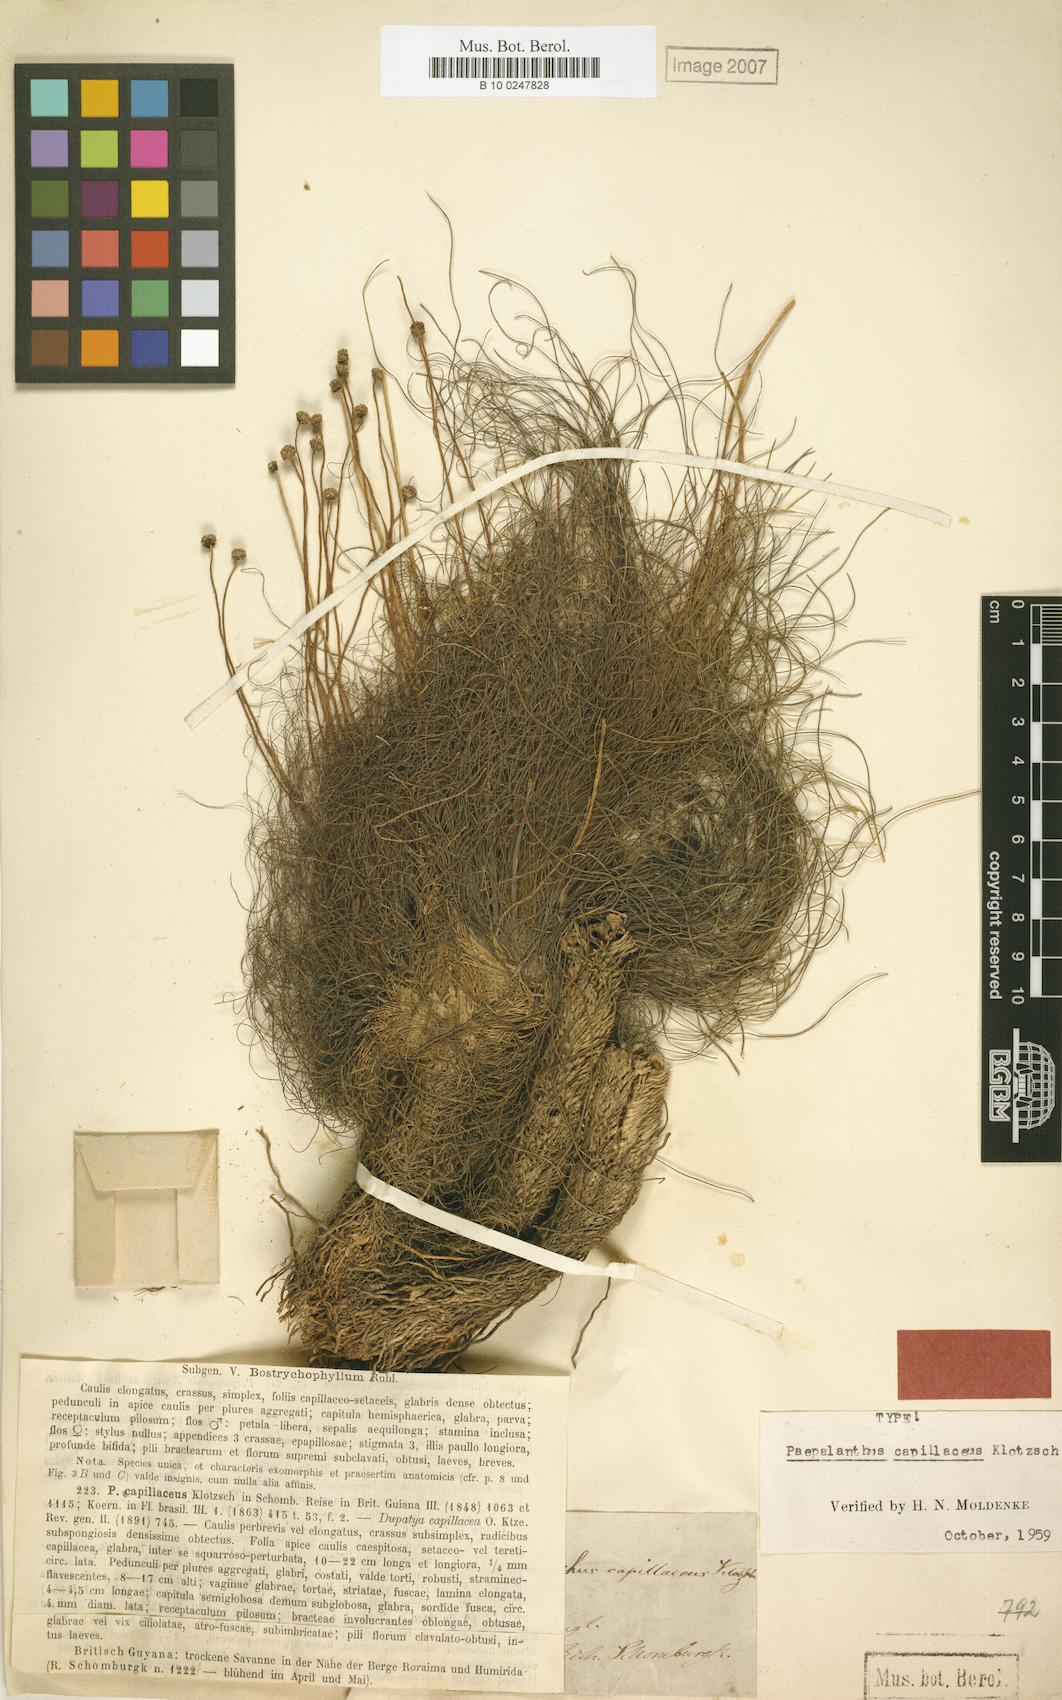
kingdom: Plantae
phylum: Tracheophyta
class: Liliopsida
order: Poales
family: Eriocaulaceae
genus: Paepalanthus
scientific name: Paepalanthus capillaceus
